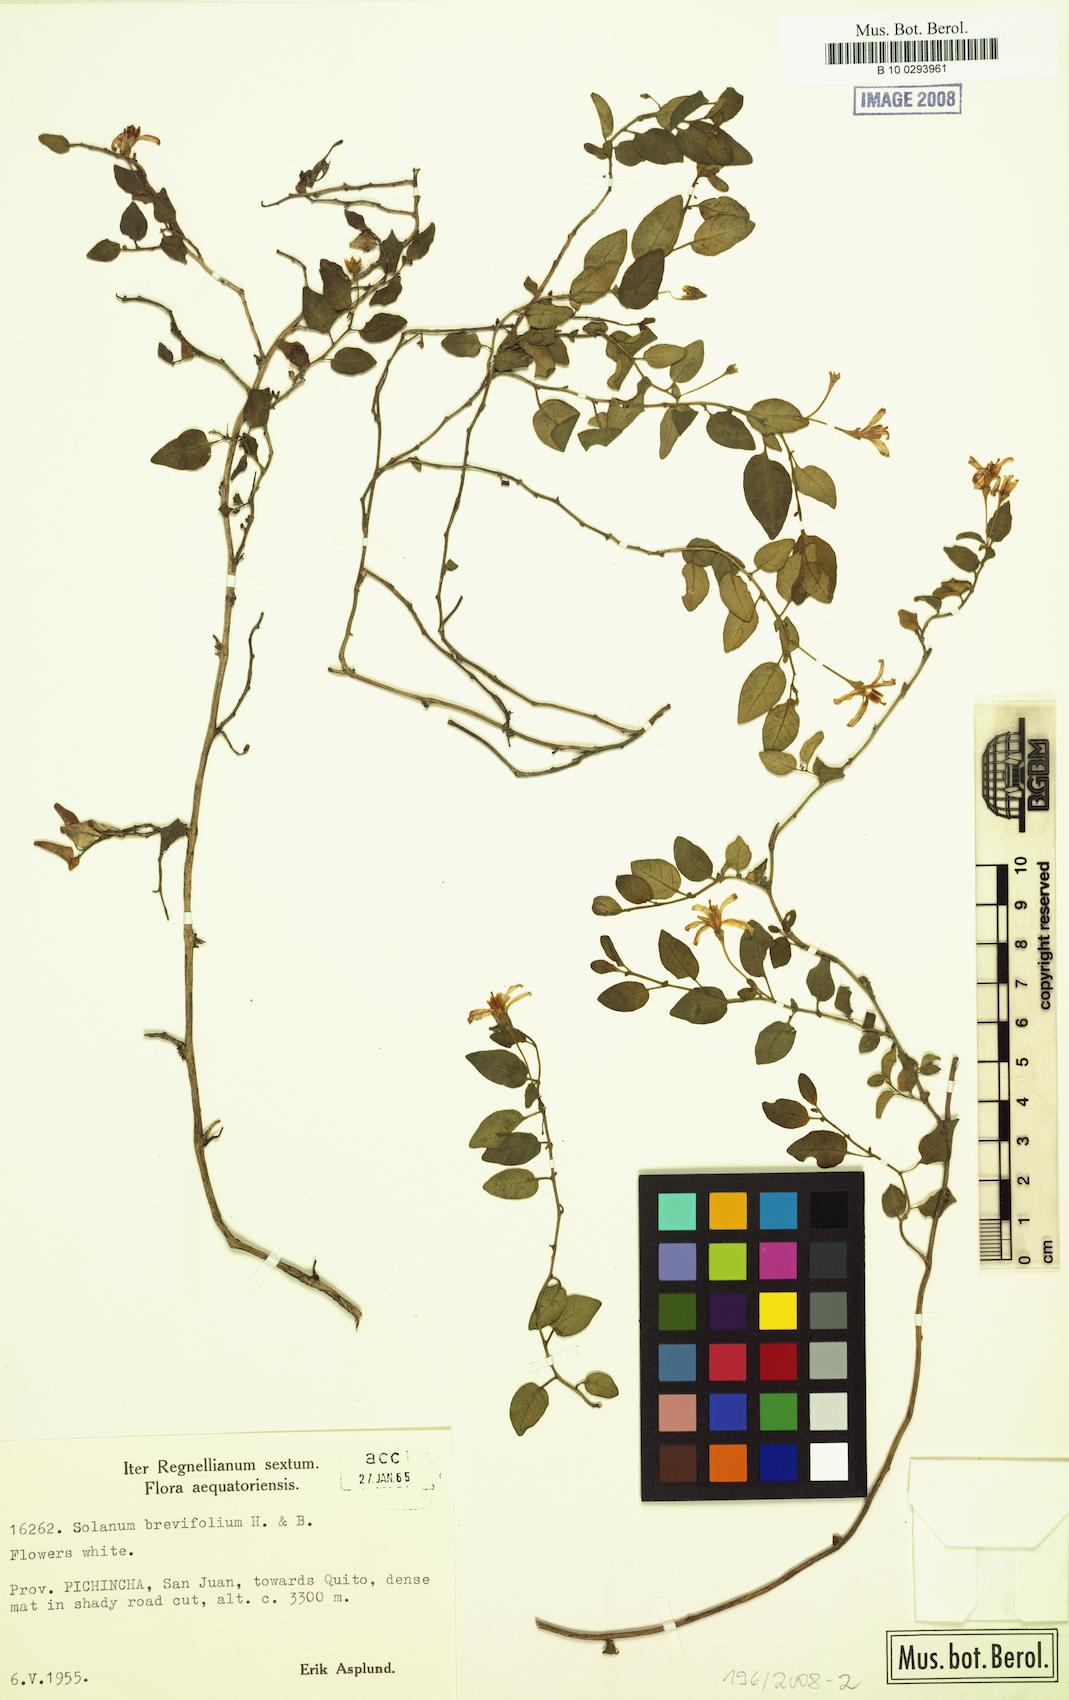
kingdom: Plantae
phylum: Tracheophyta
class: Magnoliopsida
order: Solanales
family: Solanaceae
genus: Solanum
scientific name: Solanum brevifolium
